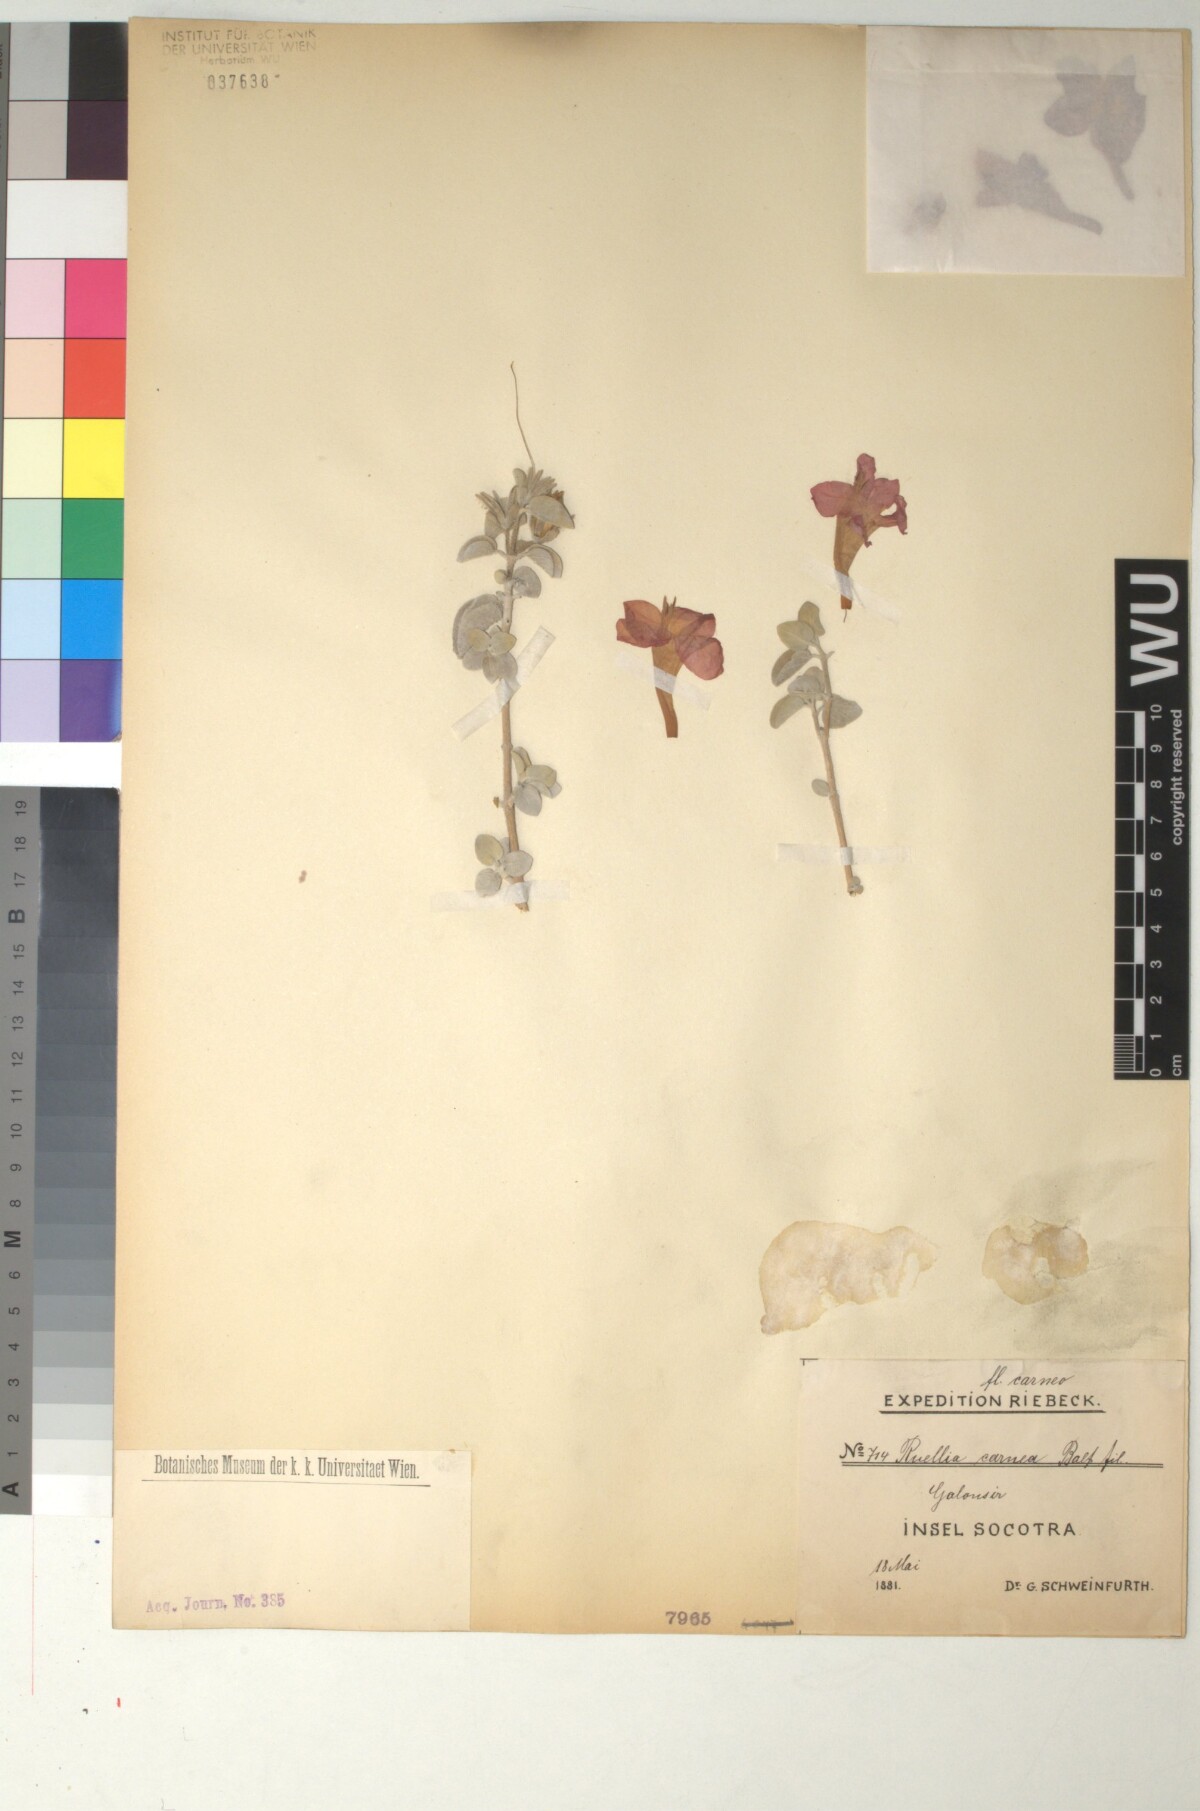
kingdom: Plantae
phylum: Tracheophyta
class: Magnoliopsida
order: Lamiales
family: Acanthaceae
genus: Ruellia
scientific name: Ruellia carnea
